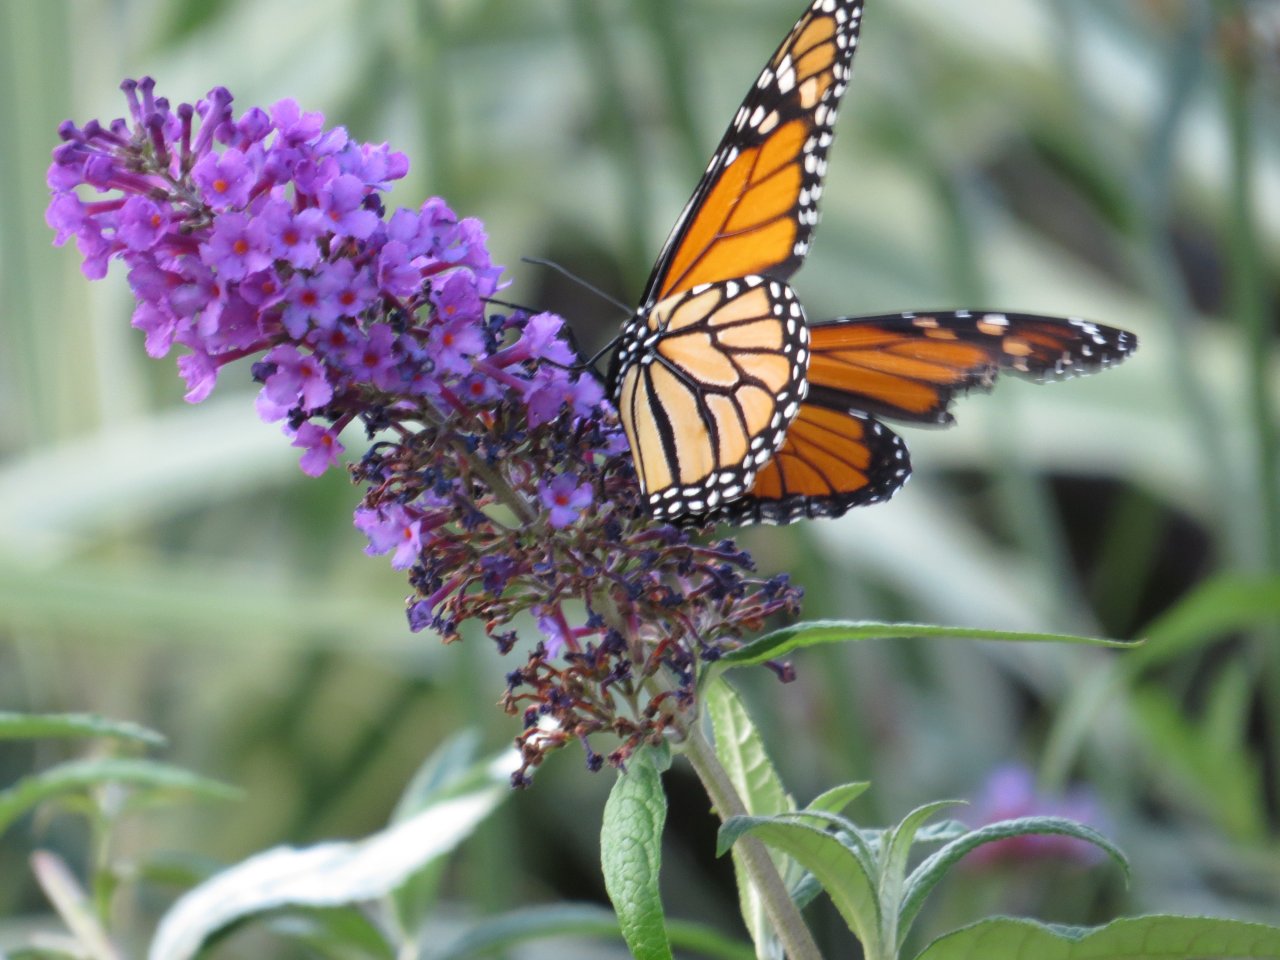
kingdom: Animalia
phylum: Arthropoda
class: Insecta
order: Lepidoptera
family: Nymphalidae
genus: Danaus
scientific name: Danaus plexippus
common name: Monarch
